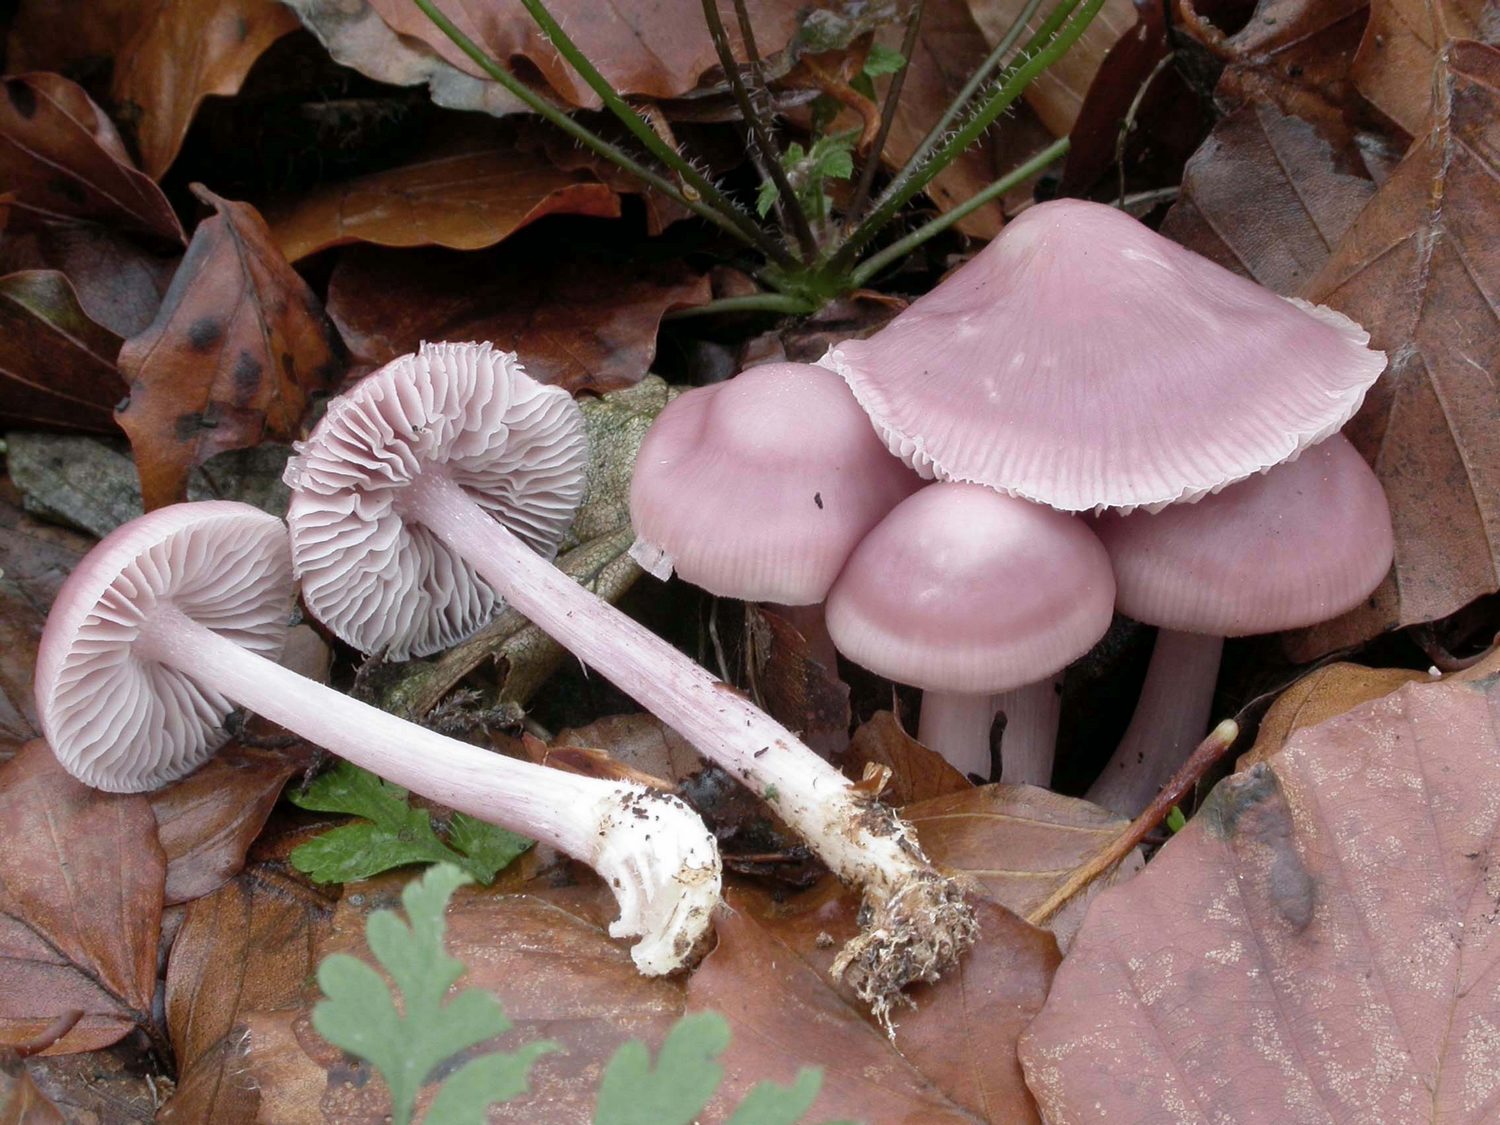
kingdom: Fungi
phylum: Basidiomycota
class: Agaricomycetes
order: Agaricales
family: Mycenaceae
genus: Mycena
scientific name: Mycena rosea
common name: rosa huesvamp
